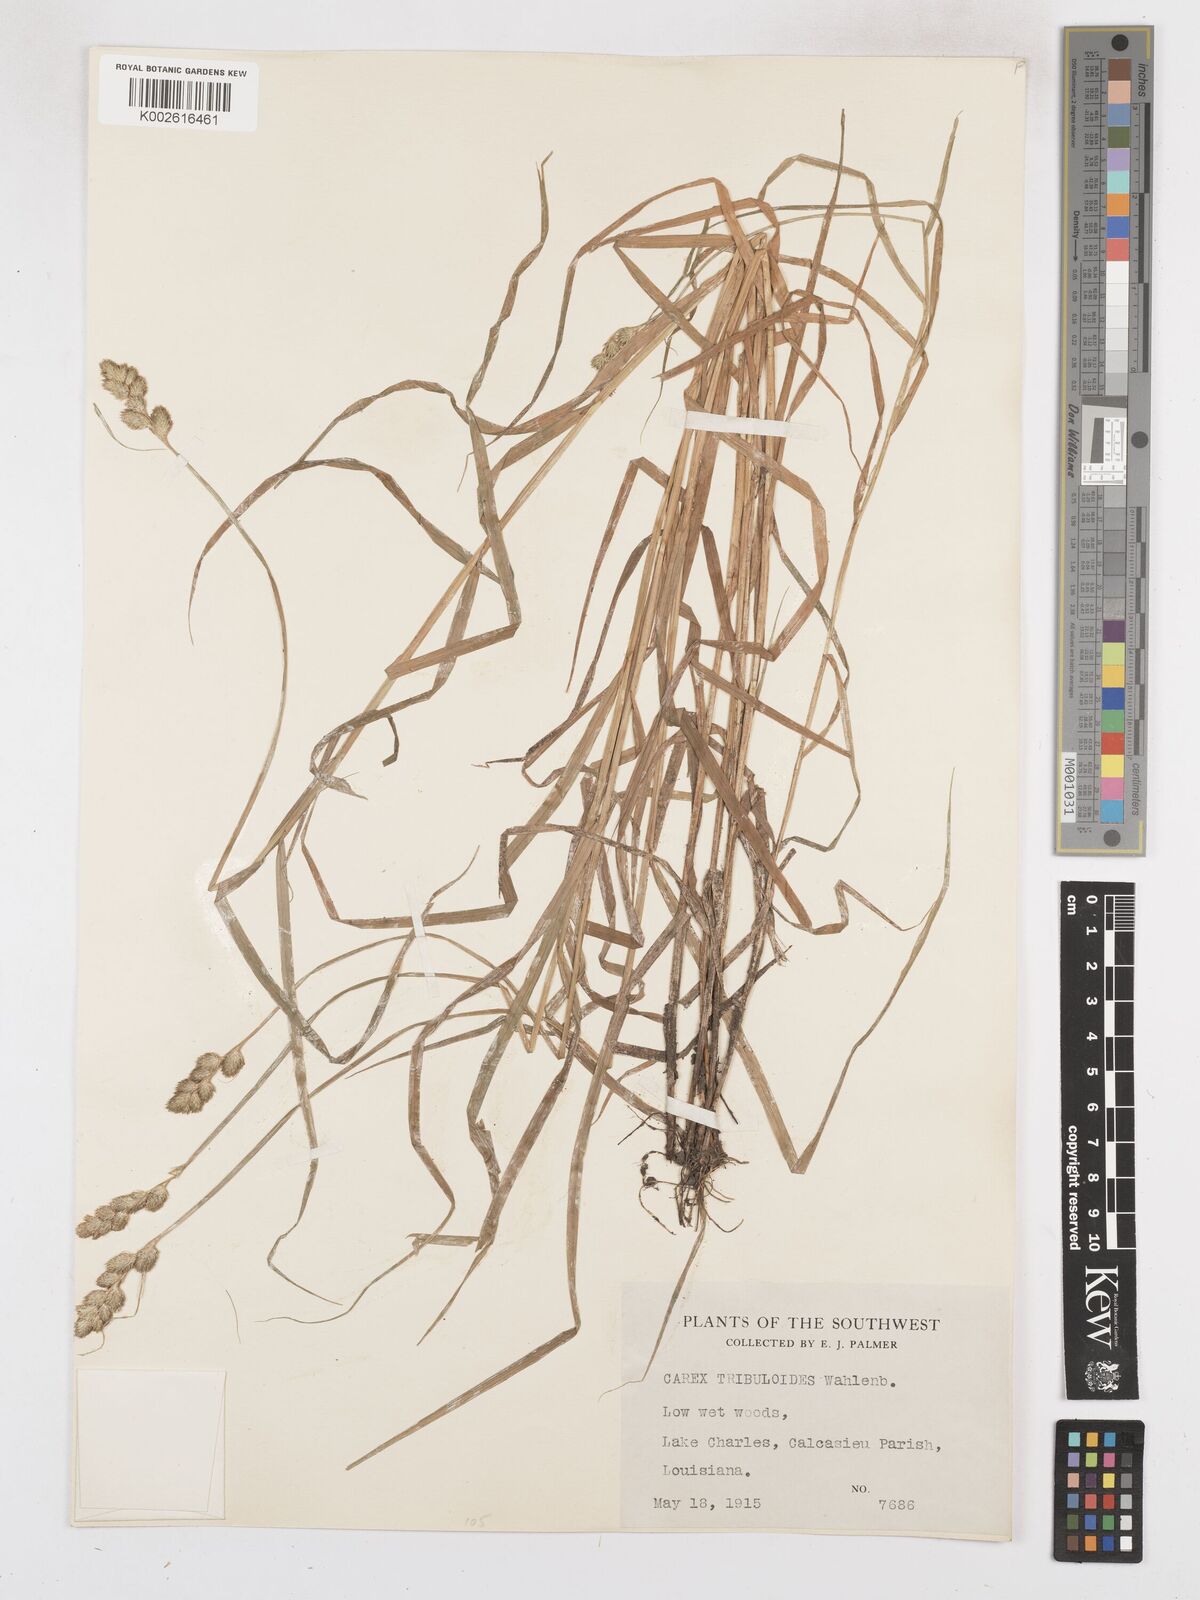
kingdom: Plantae
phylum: Tracheophyta
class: Liliopsida
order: Poales
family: Cyperaceae
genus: Carex
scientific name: Carex tribuloides
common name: Blunt broom sedge
